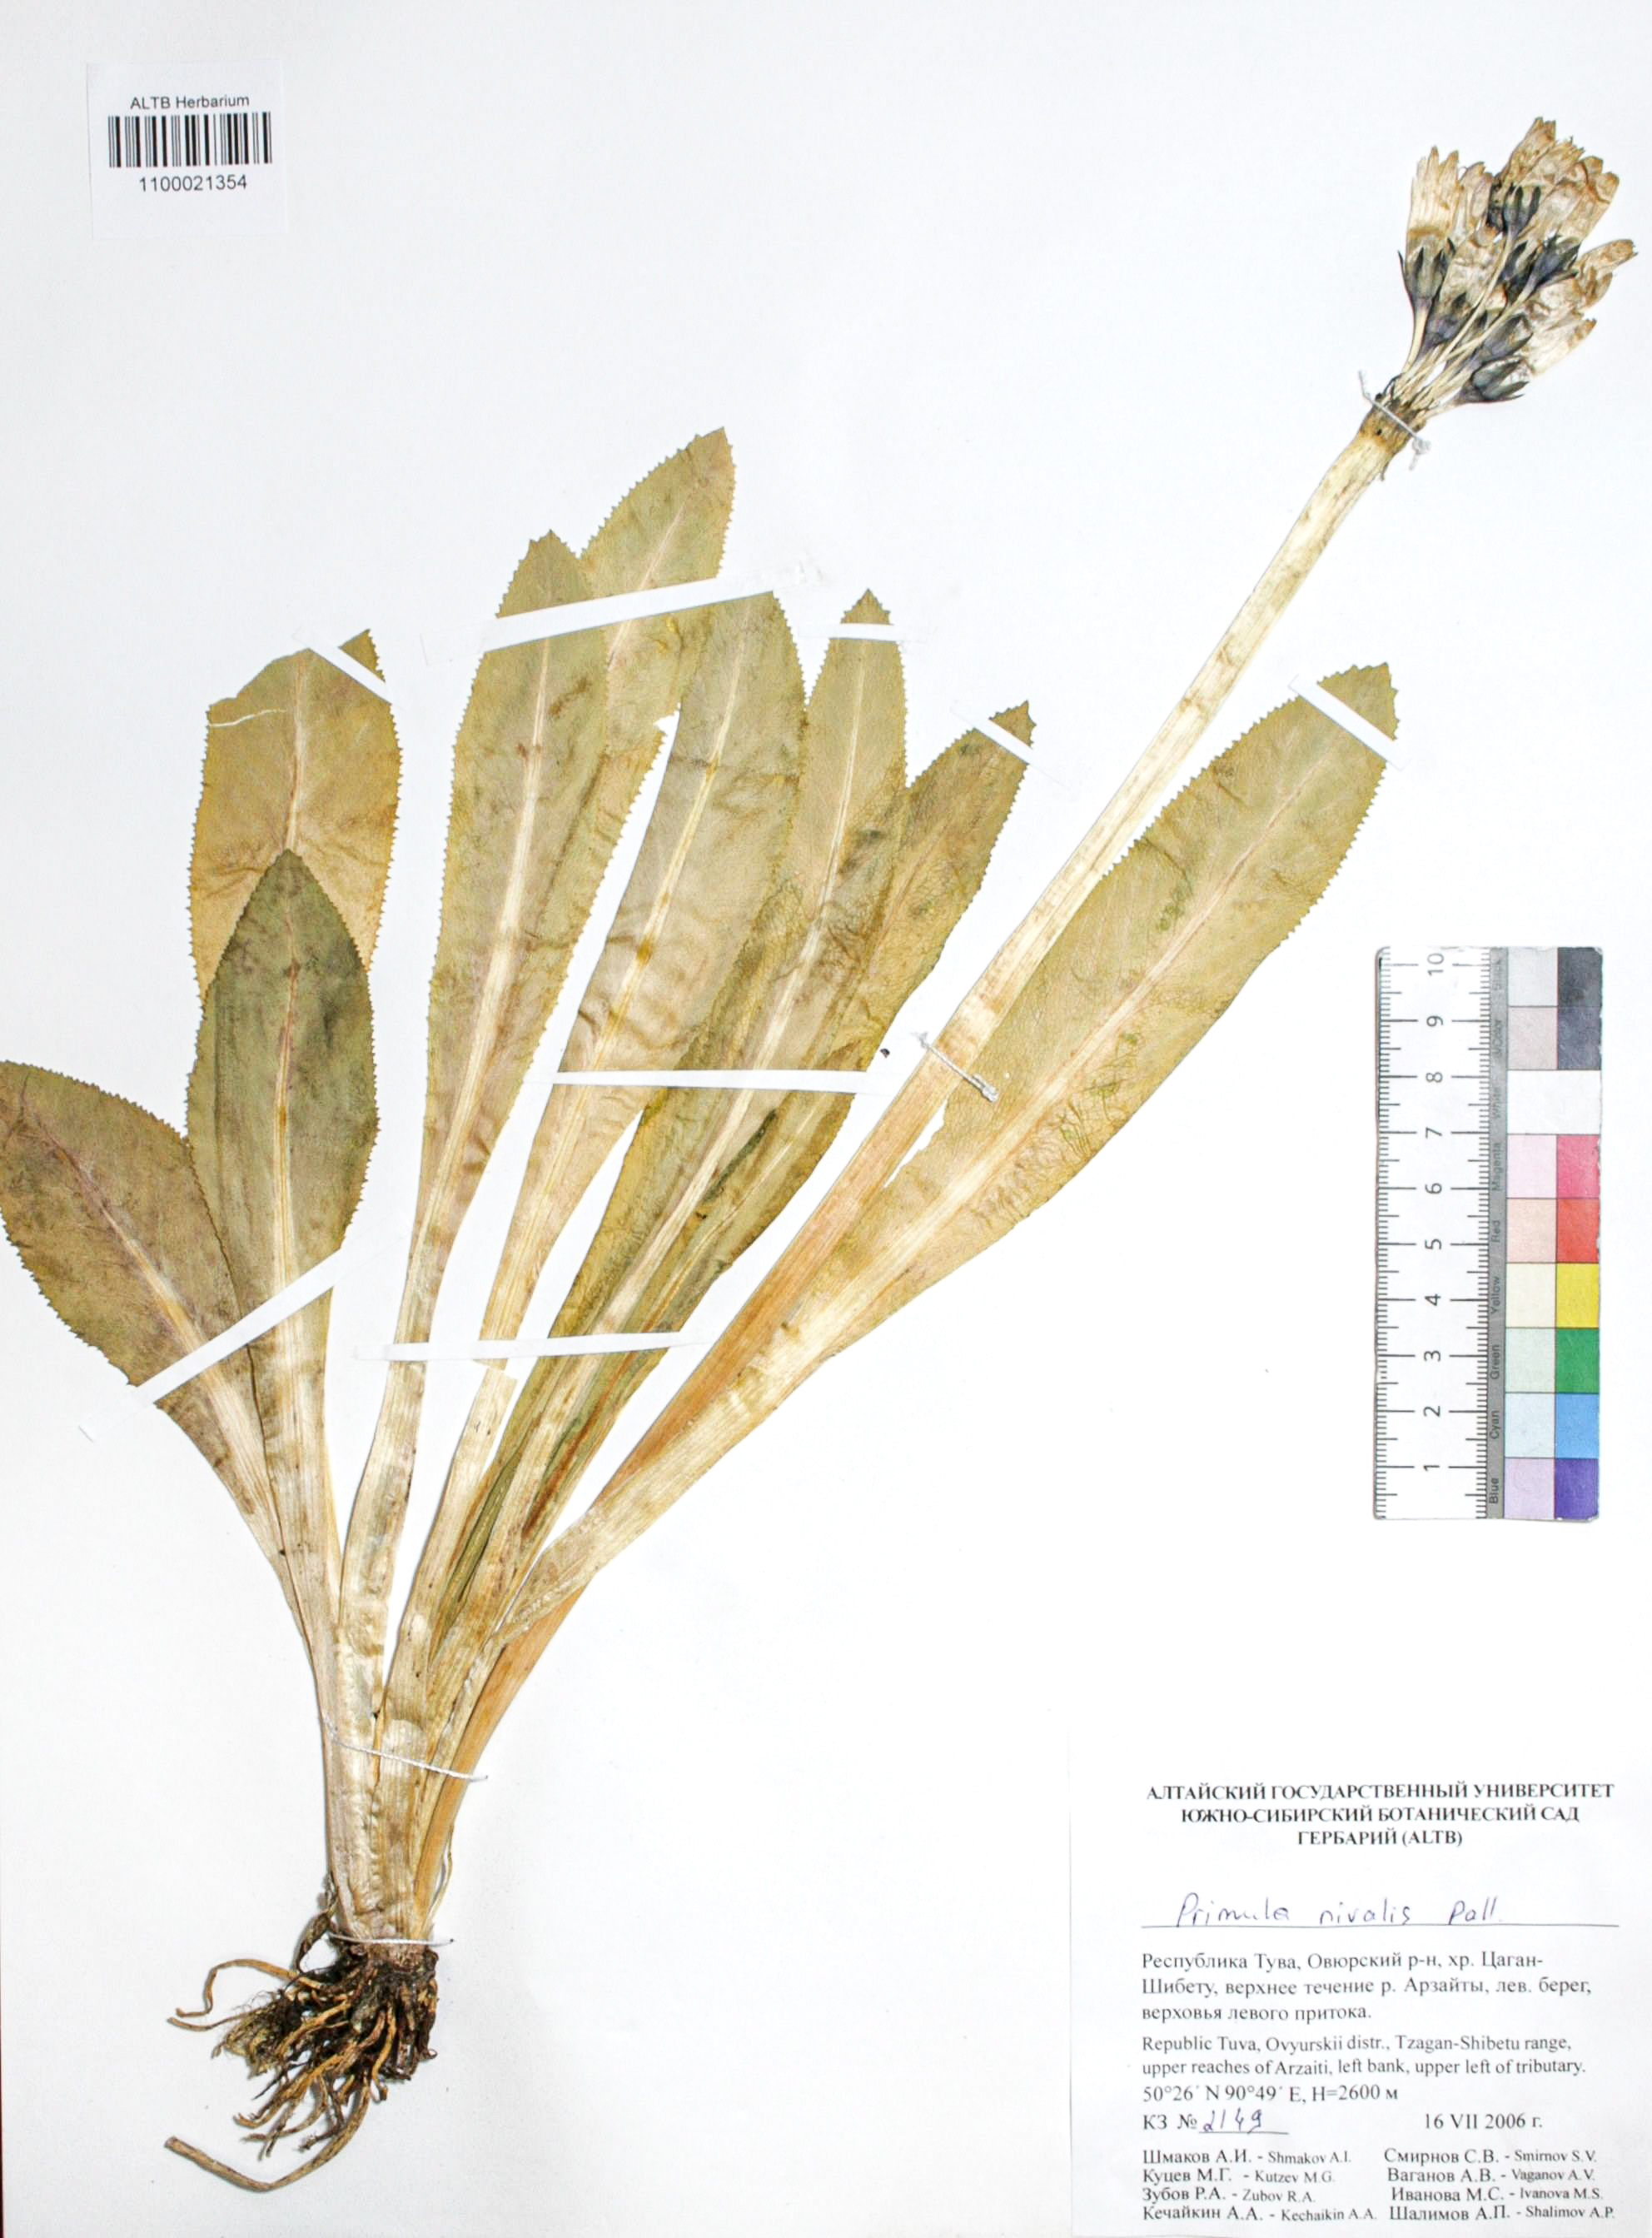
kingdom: Plantae
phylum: Tracheophyta
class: Magnoliopsida
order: Ericales
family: Primulaceae
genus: Primula
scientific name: Primula nivalis
